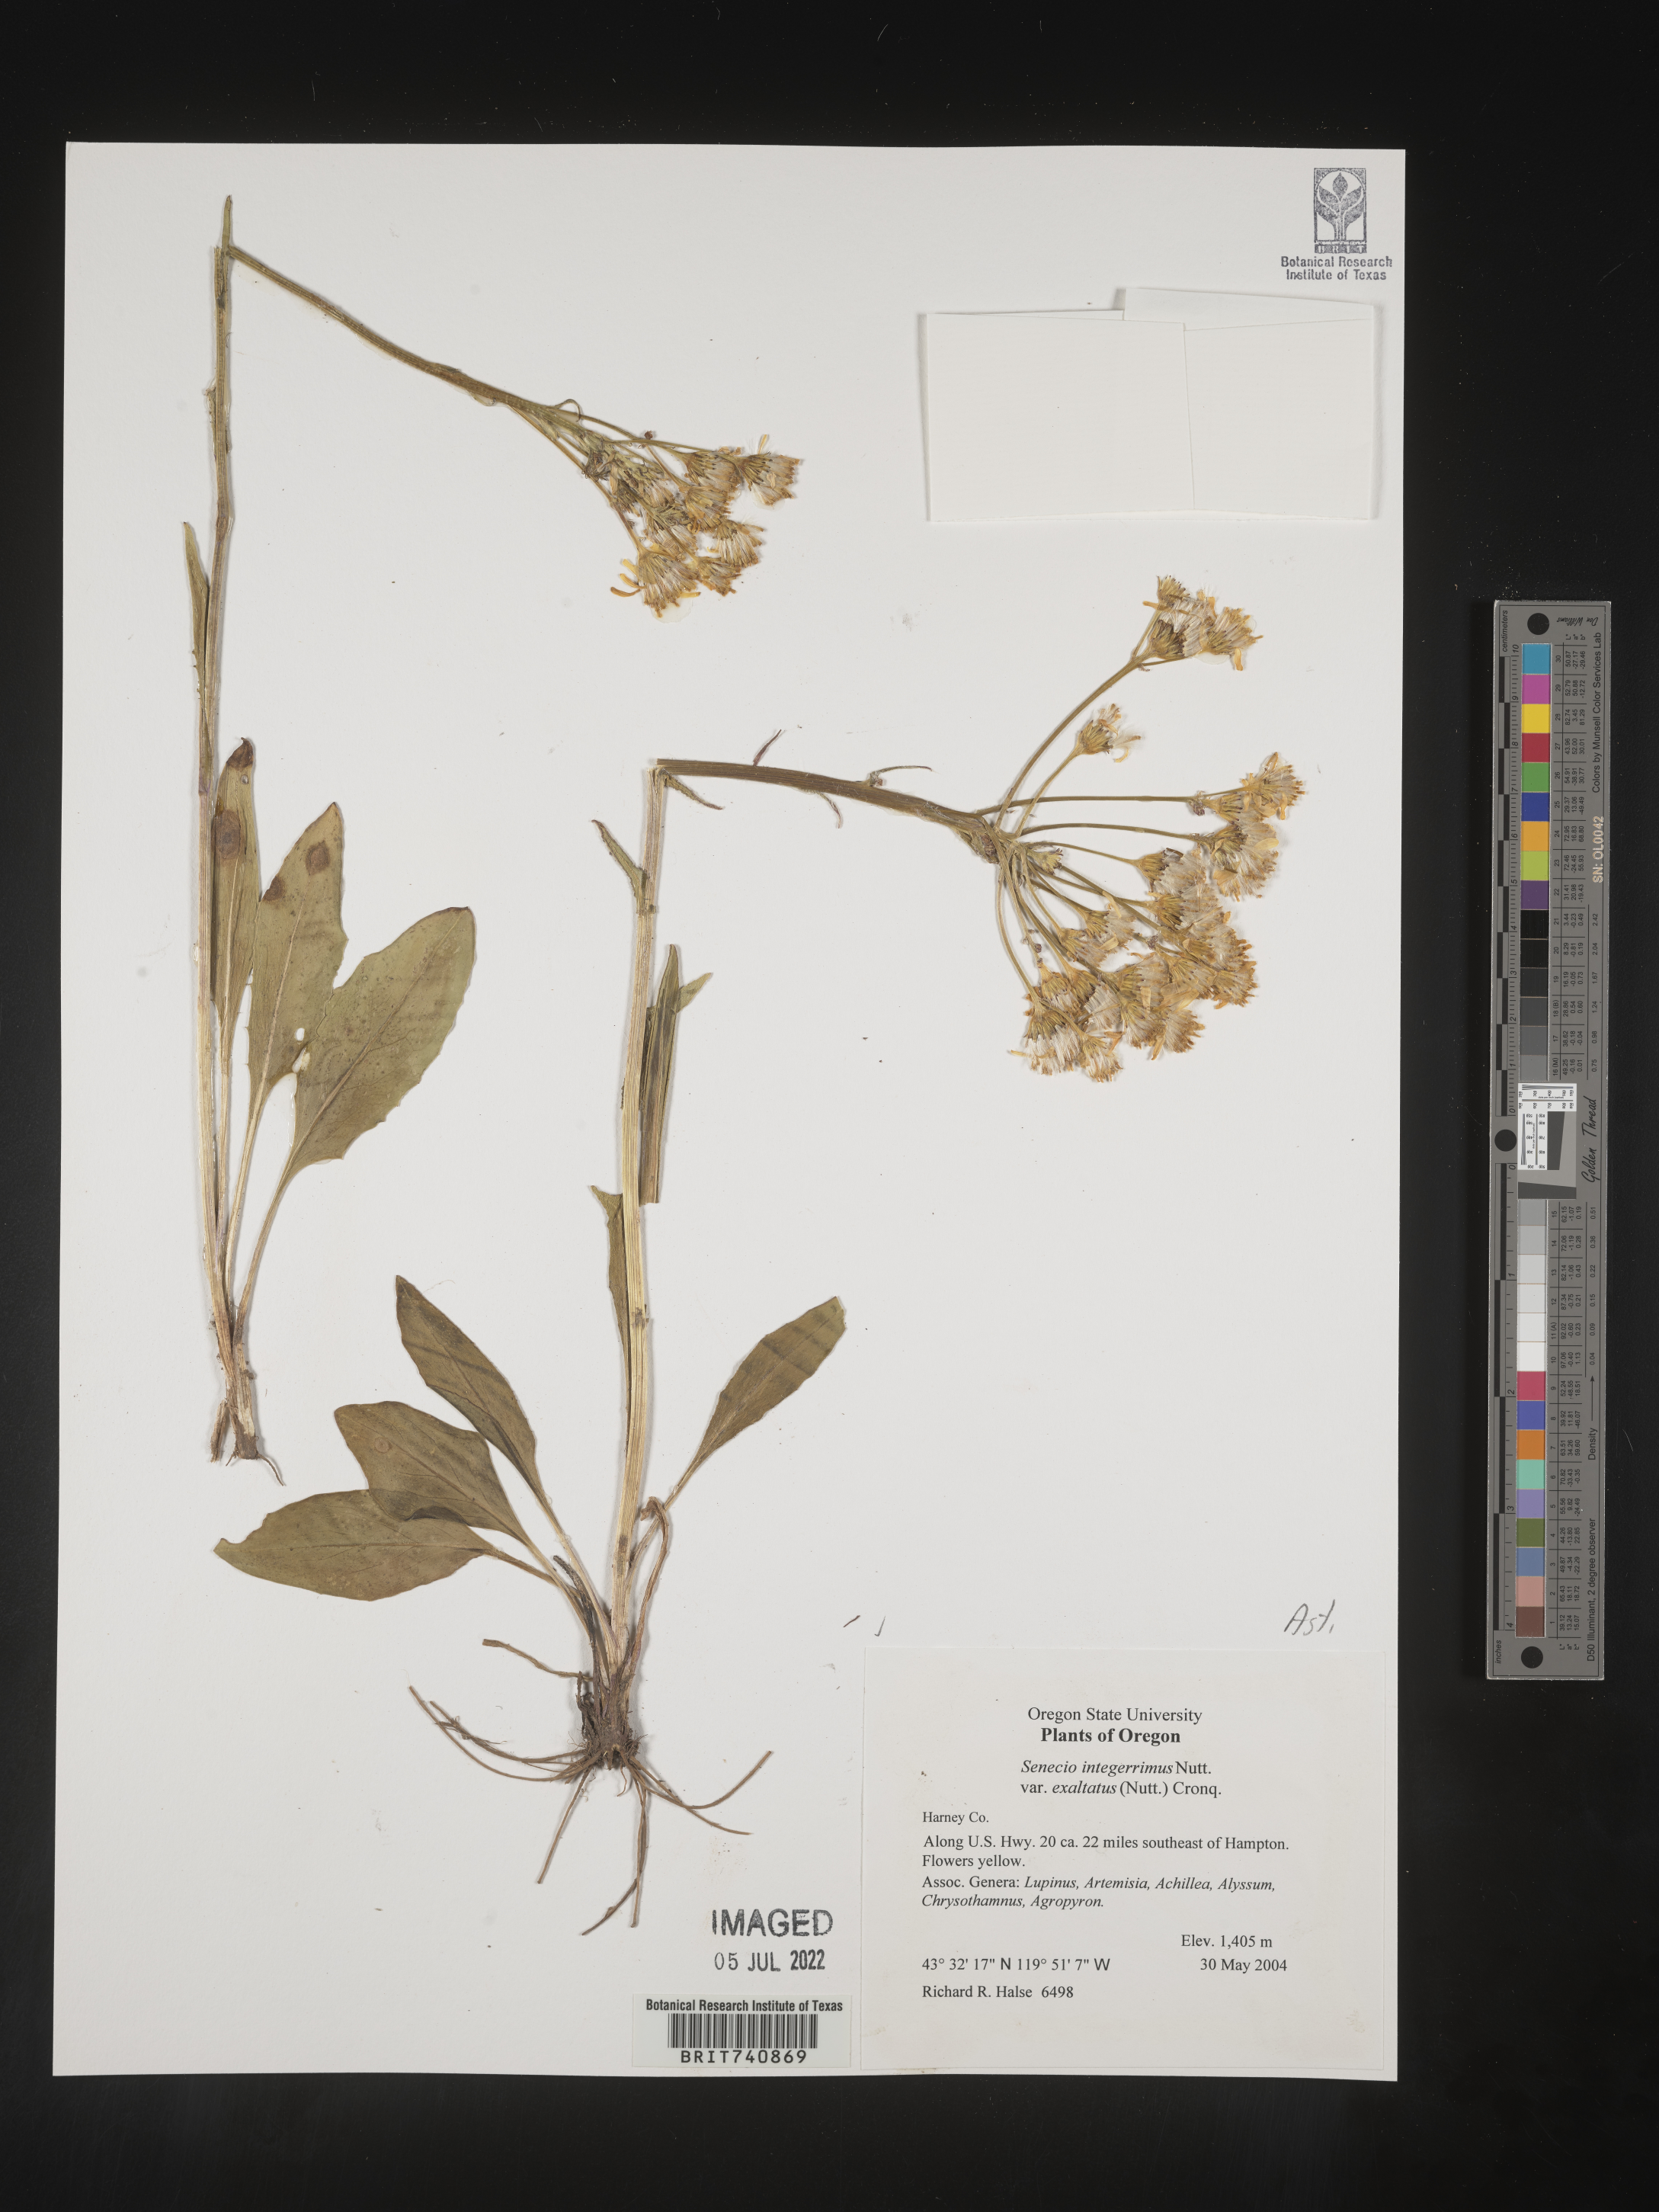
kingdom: Plantae
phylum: Tracheophyta
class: Magnoliopsida
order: Asterales
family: Asteraceae
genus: Senecio
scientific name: Senecio integerrimus
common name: Gaugeplant
